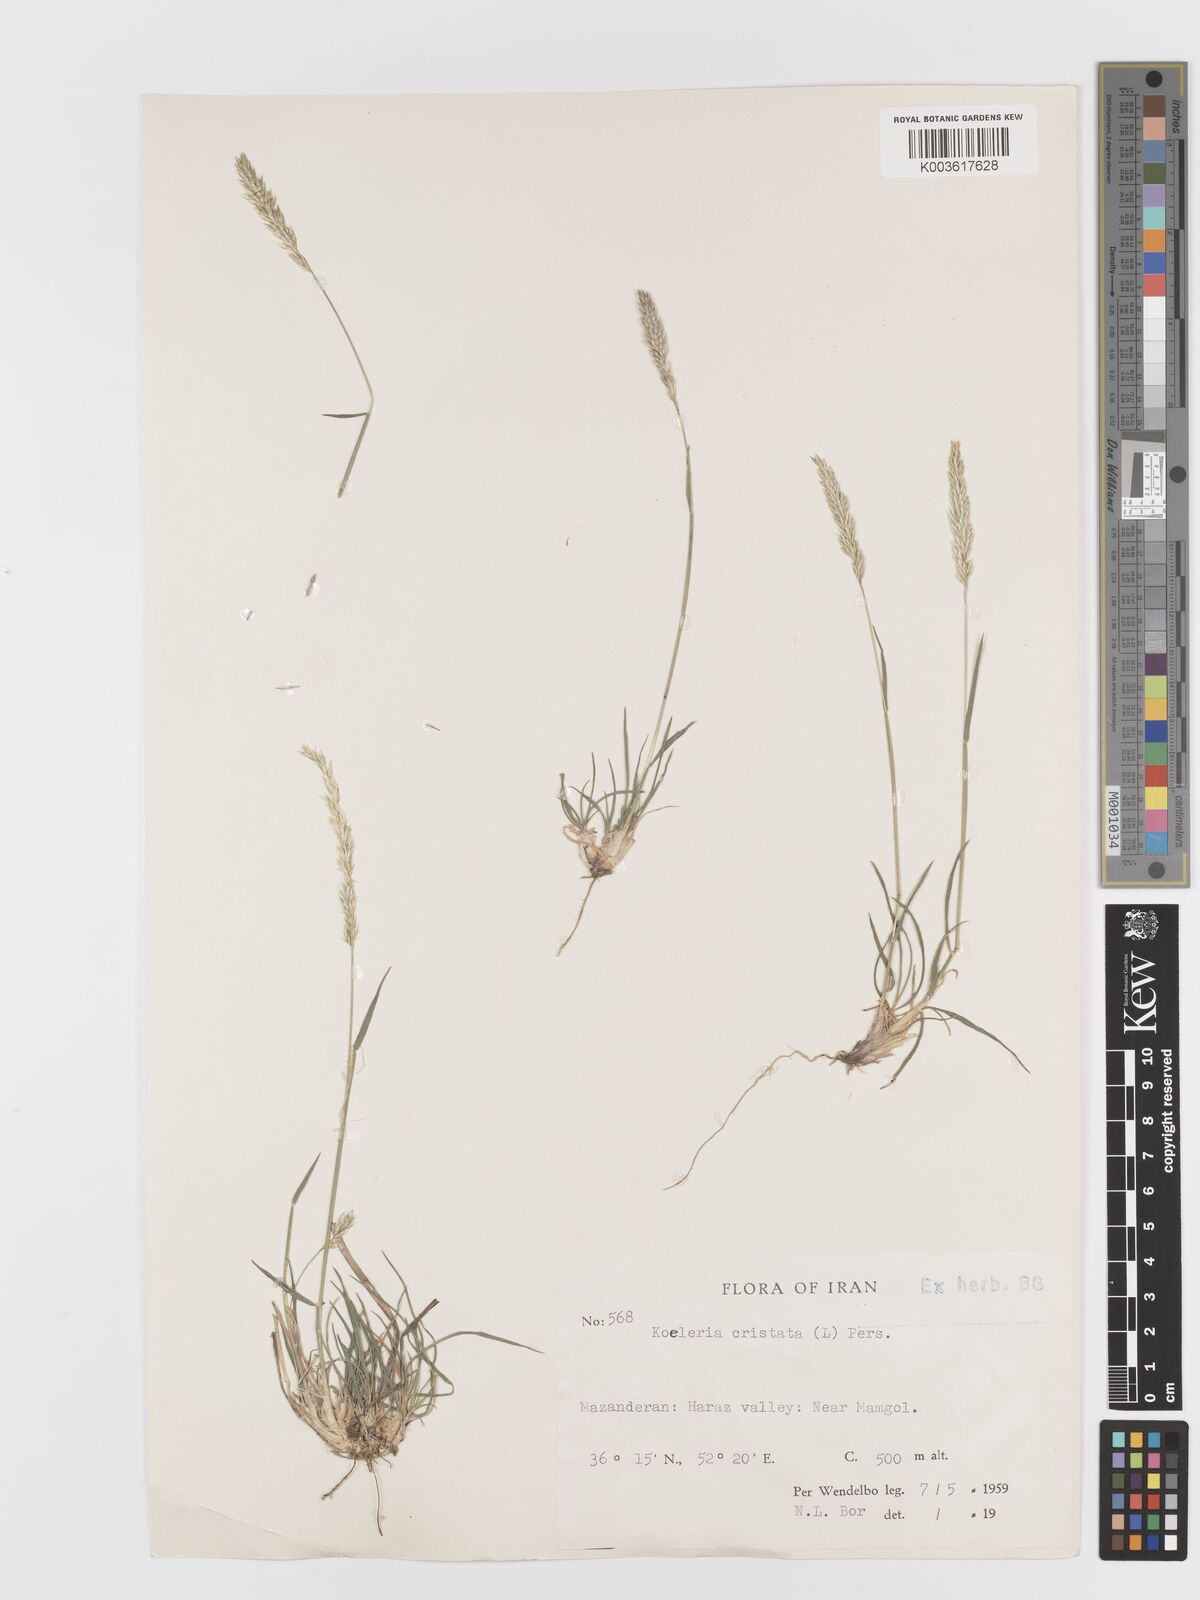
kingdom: Plantae
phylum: Tracheophyta
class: Liliopsida
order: Poales
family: Poaceae
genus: Koeleria
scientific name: Koeleria macrantha
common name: Crested hair-grass
